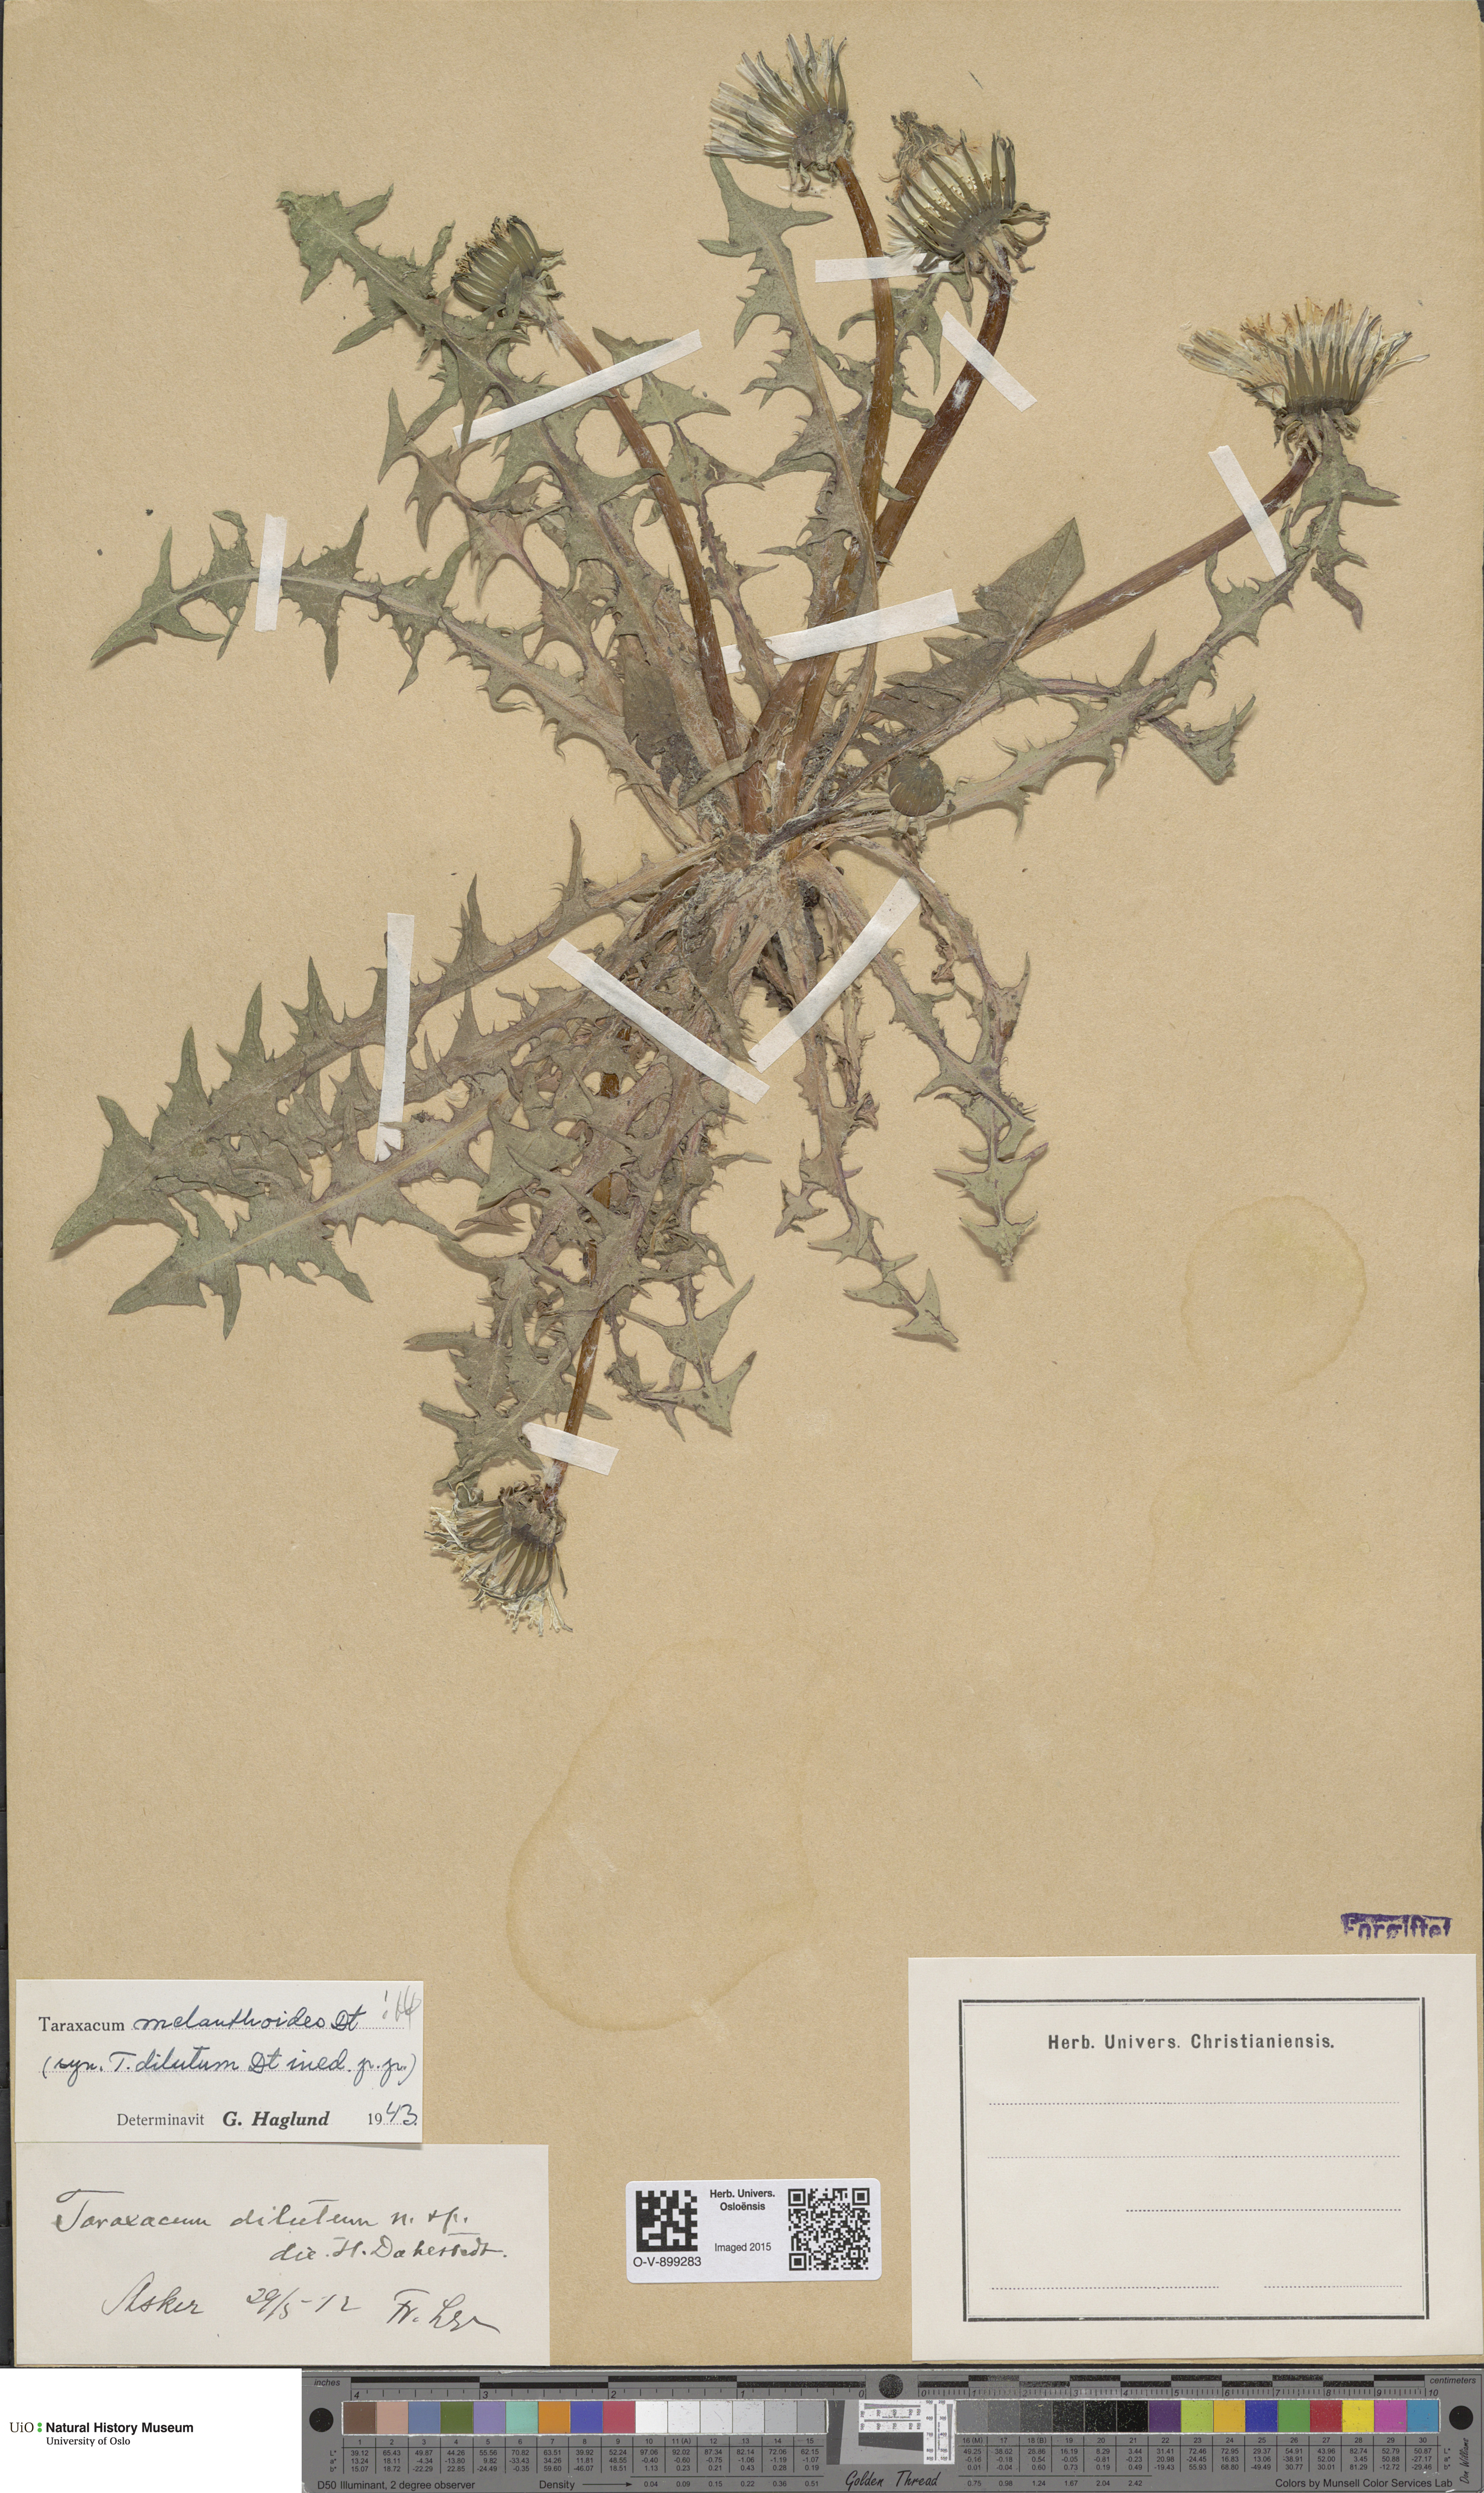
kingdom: Plantae
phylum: Tracheophyta
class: Magnoliopsida
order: Asterales
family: Asteraceae
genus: Taraxacum
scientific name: Taraxacum melanthoides
